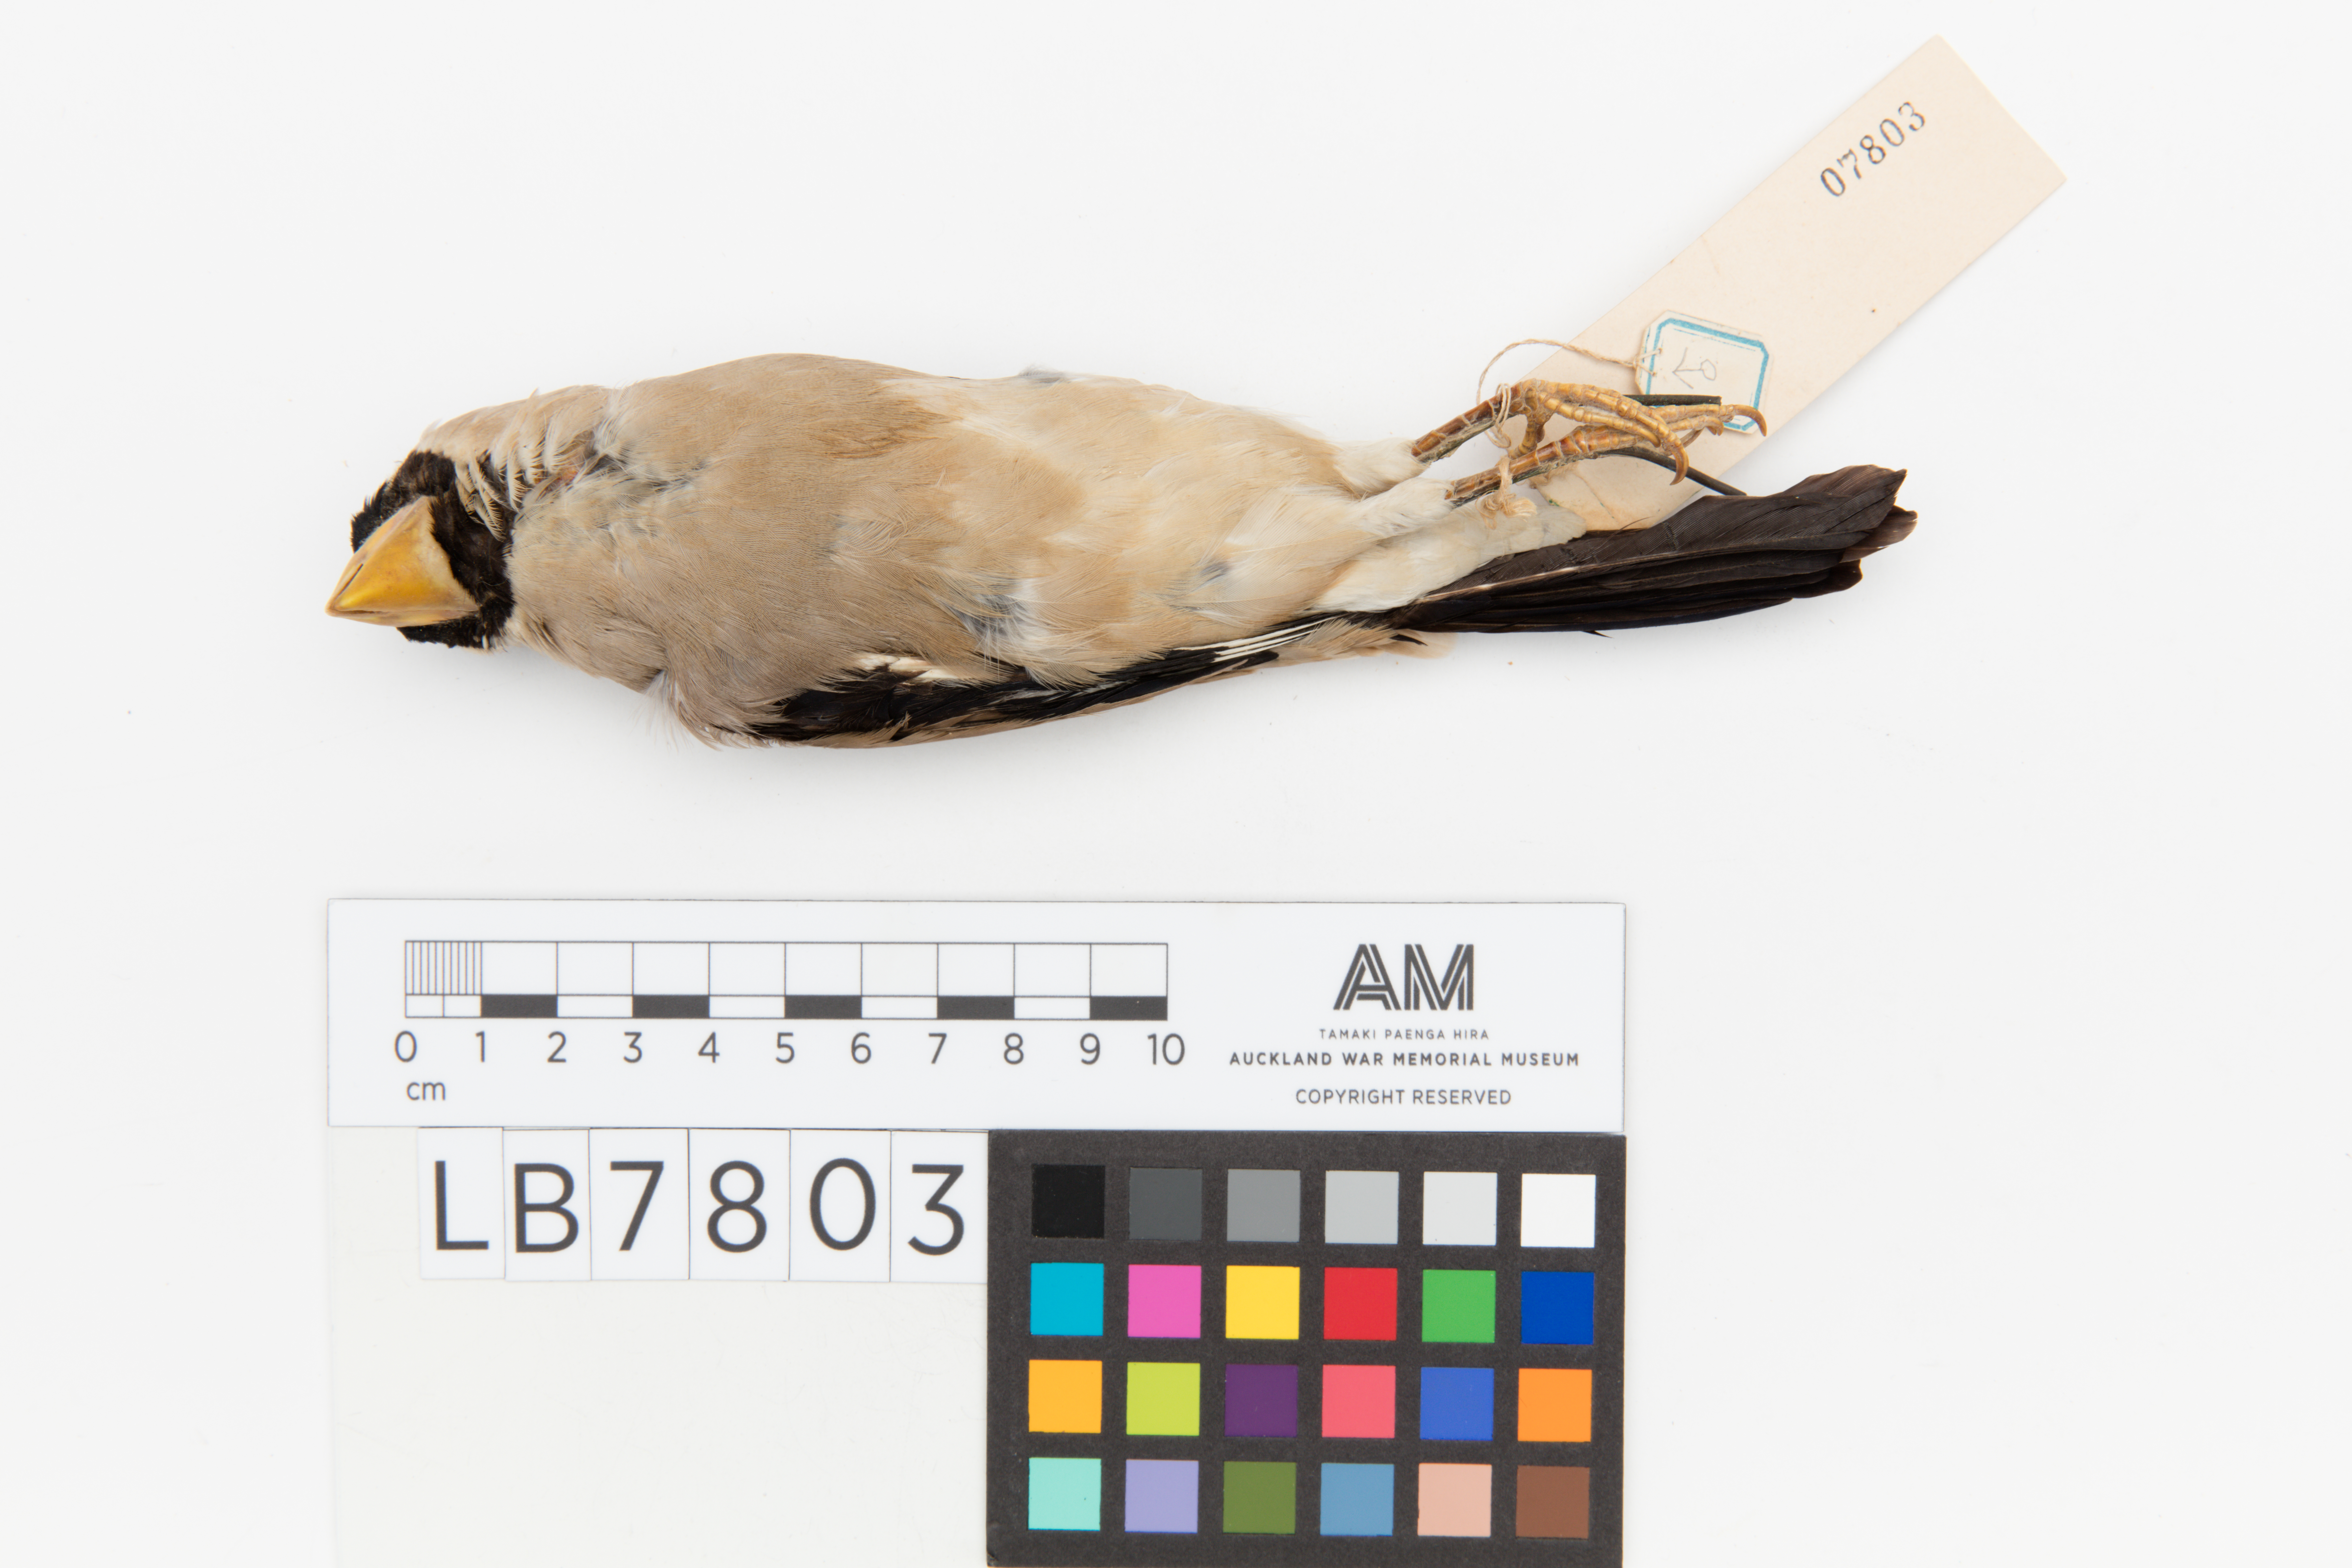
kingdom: Animalia
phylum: Chordata
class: Aves
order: Passeriformes
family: Fringillidae
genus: Eophona
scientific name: Eophona personata
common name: Japanese grosbeak
